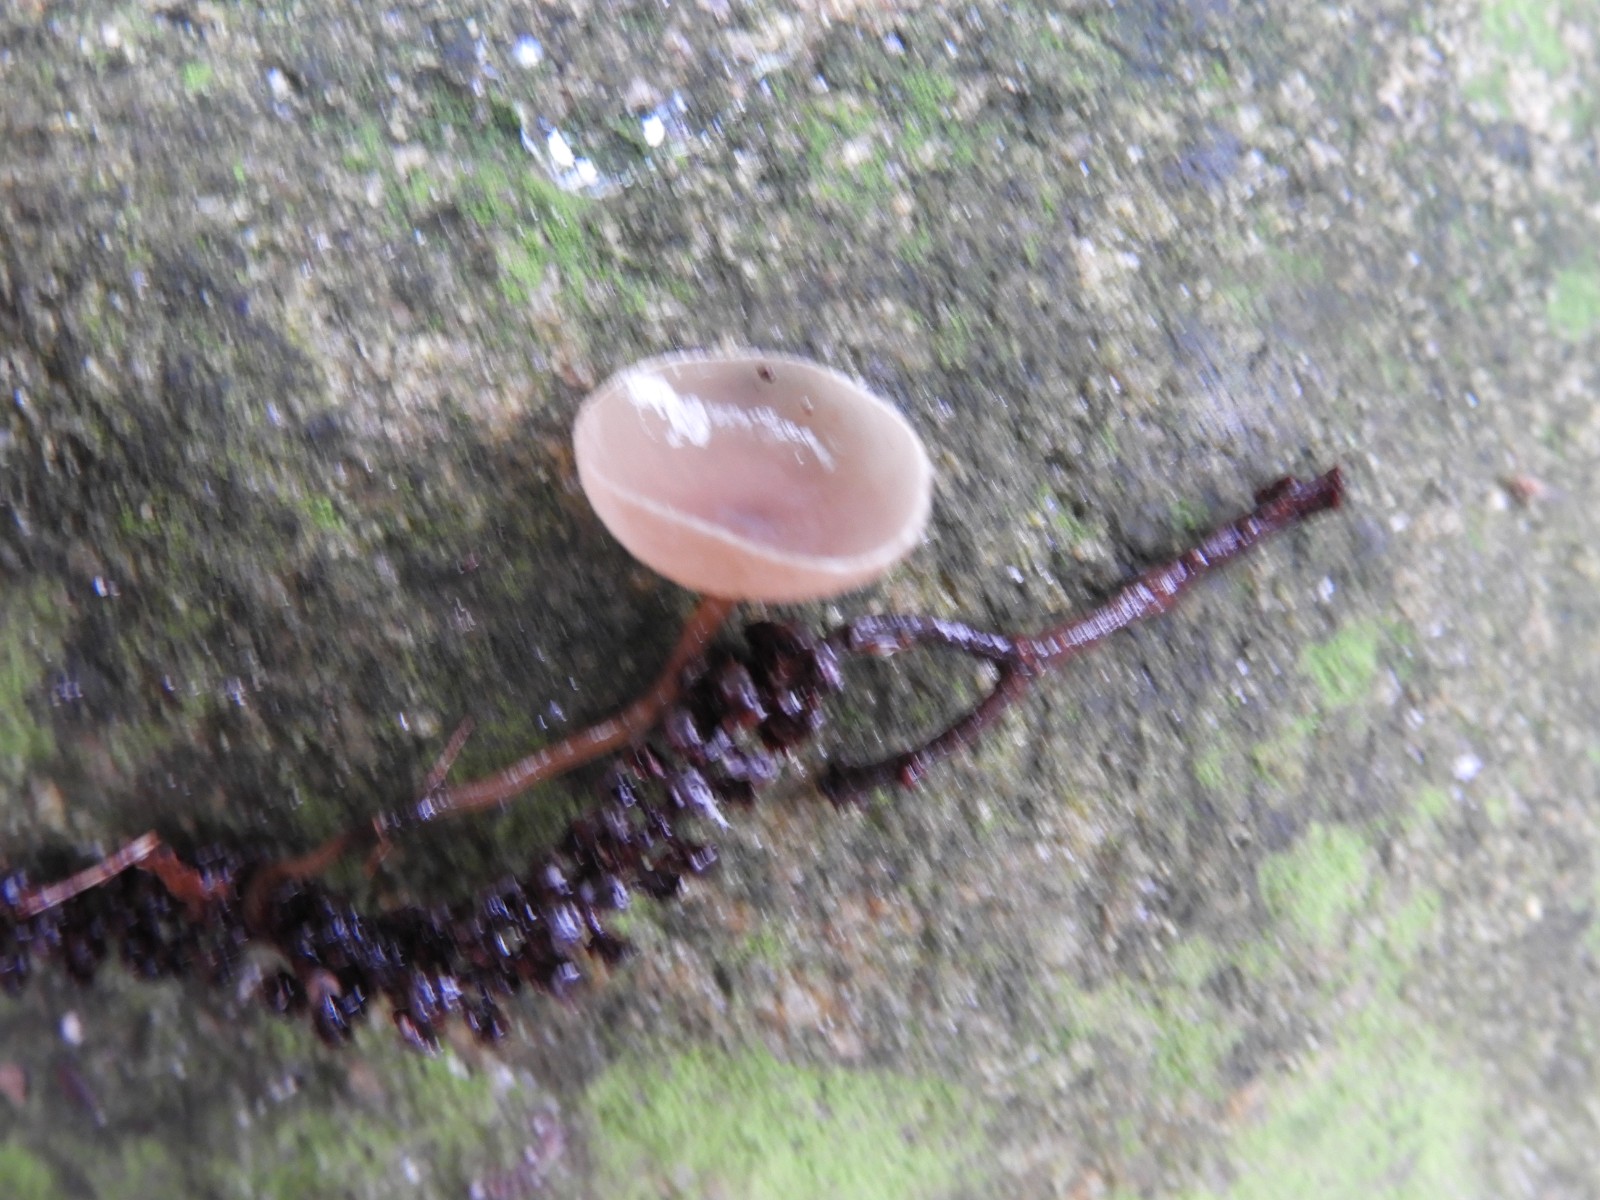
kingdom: Fungi
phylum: Ascomycota
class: Leotiomycetes
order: Helotiales
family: Sclerotiniaceae
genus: Ciboria
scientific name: Ciboria amentacea
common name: ellerakle-knoldskive
